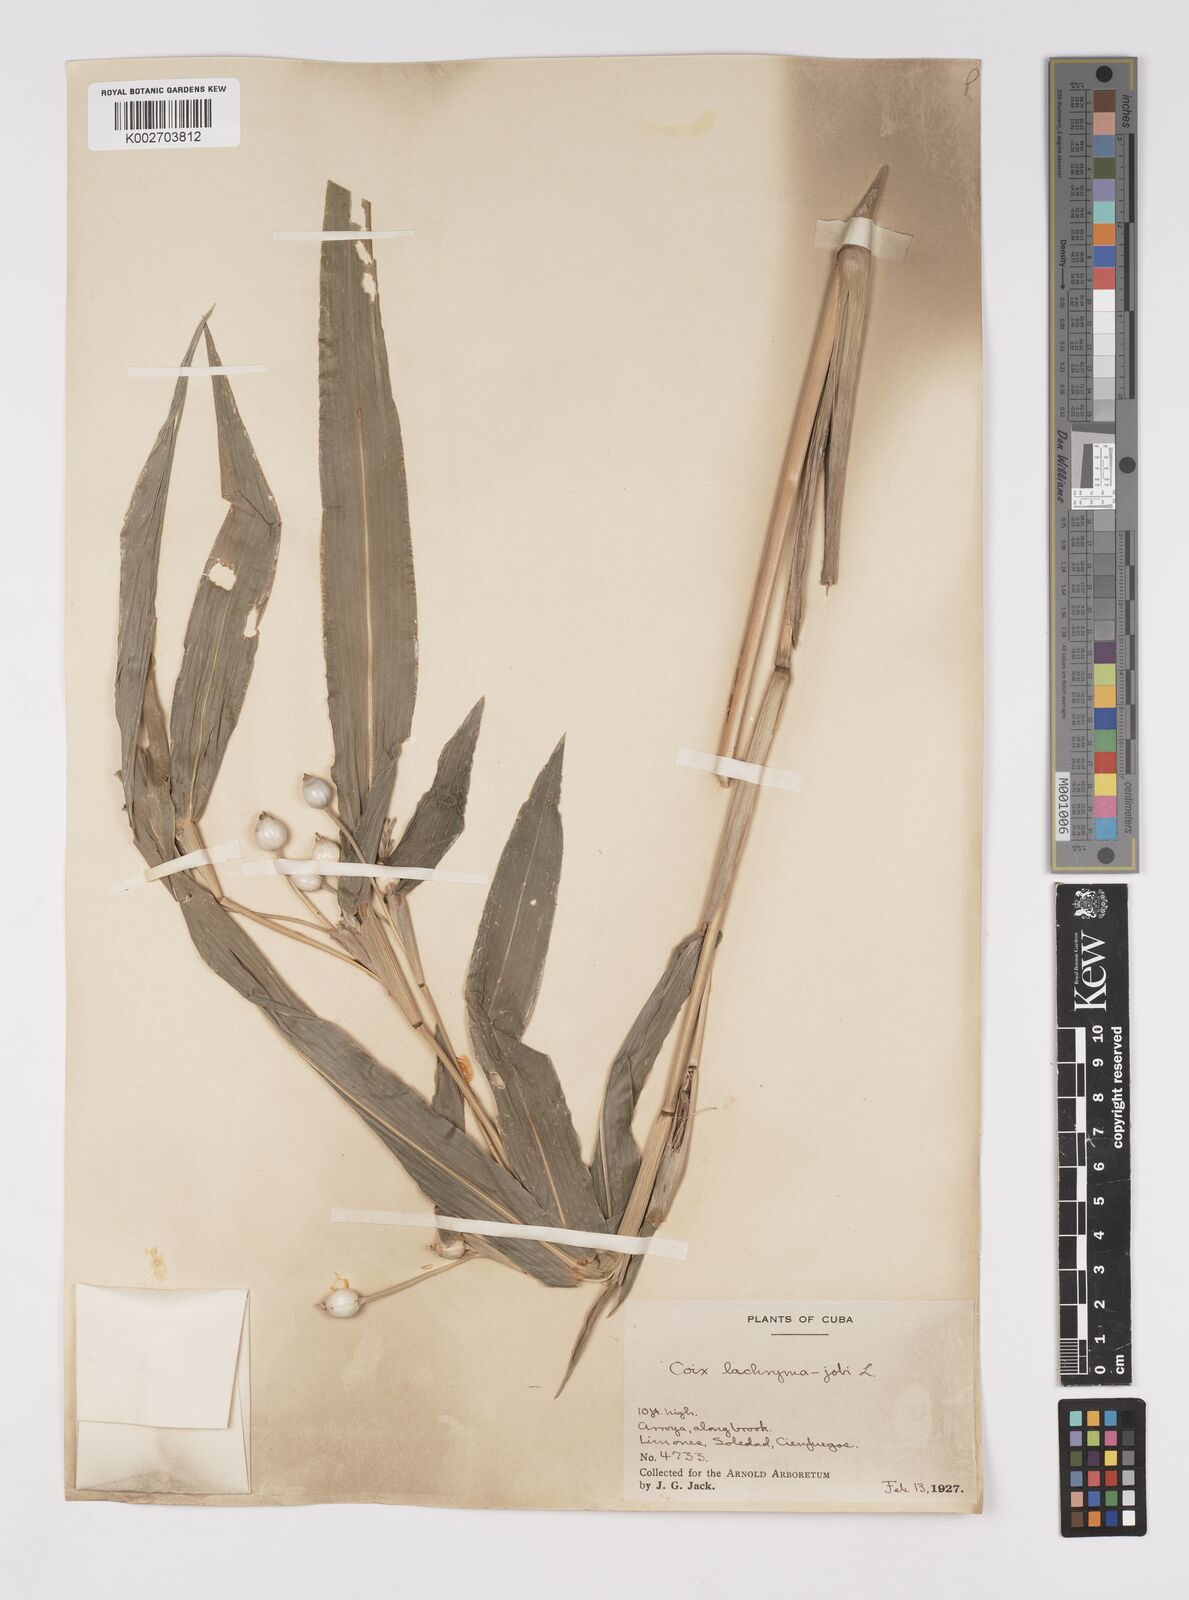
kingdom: Plantae
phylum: Tracheophyta
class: Liliopsida
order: Poales
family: Poaceae
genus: Coix
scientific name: Coix lacryma-jobi
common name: Job's tears
